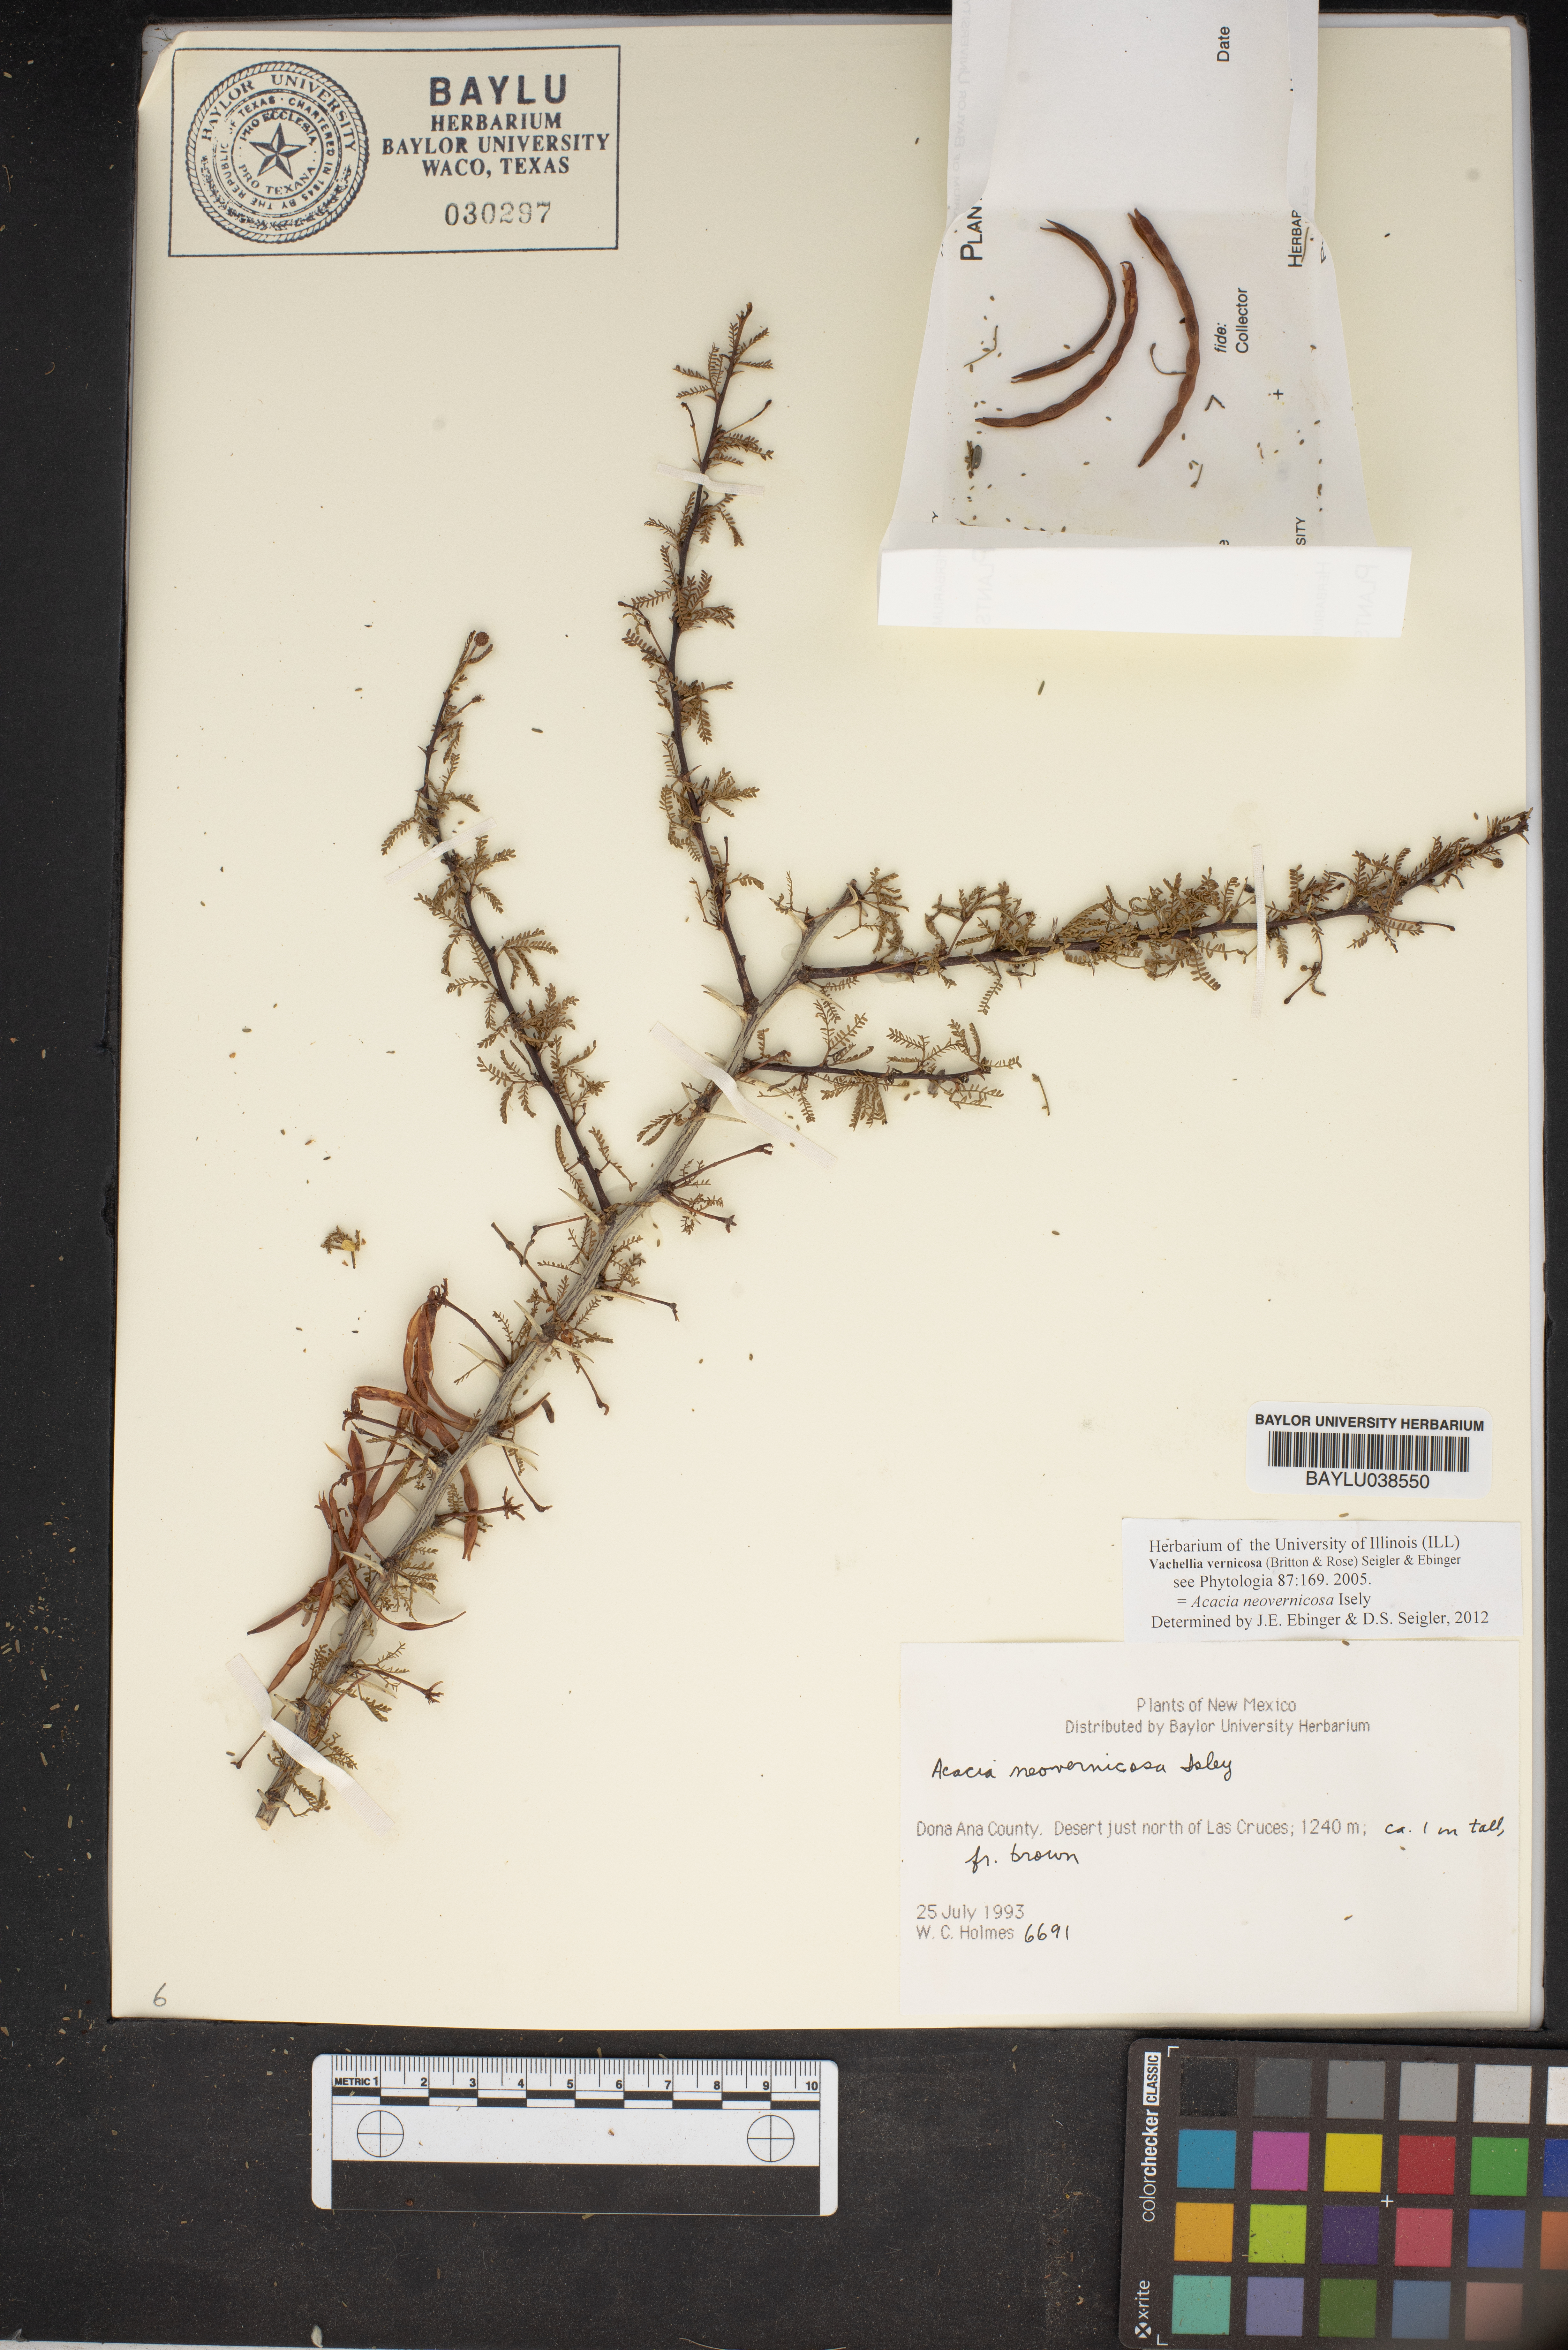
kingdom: Plantae
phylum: Tracheophyta
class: Magnoliopsida
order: Fabales
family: Fabaceae
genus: Vachellia
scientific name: Vachellia vernicosa
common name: Viscid acacia
